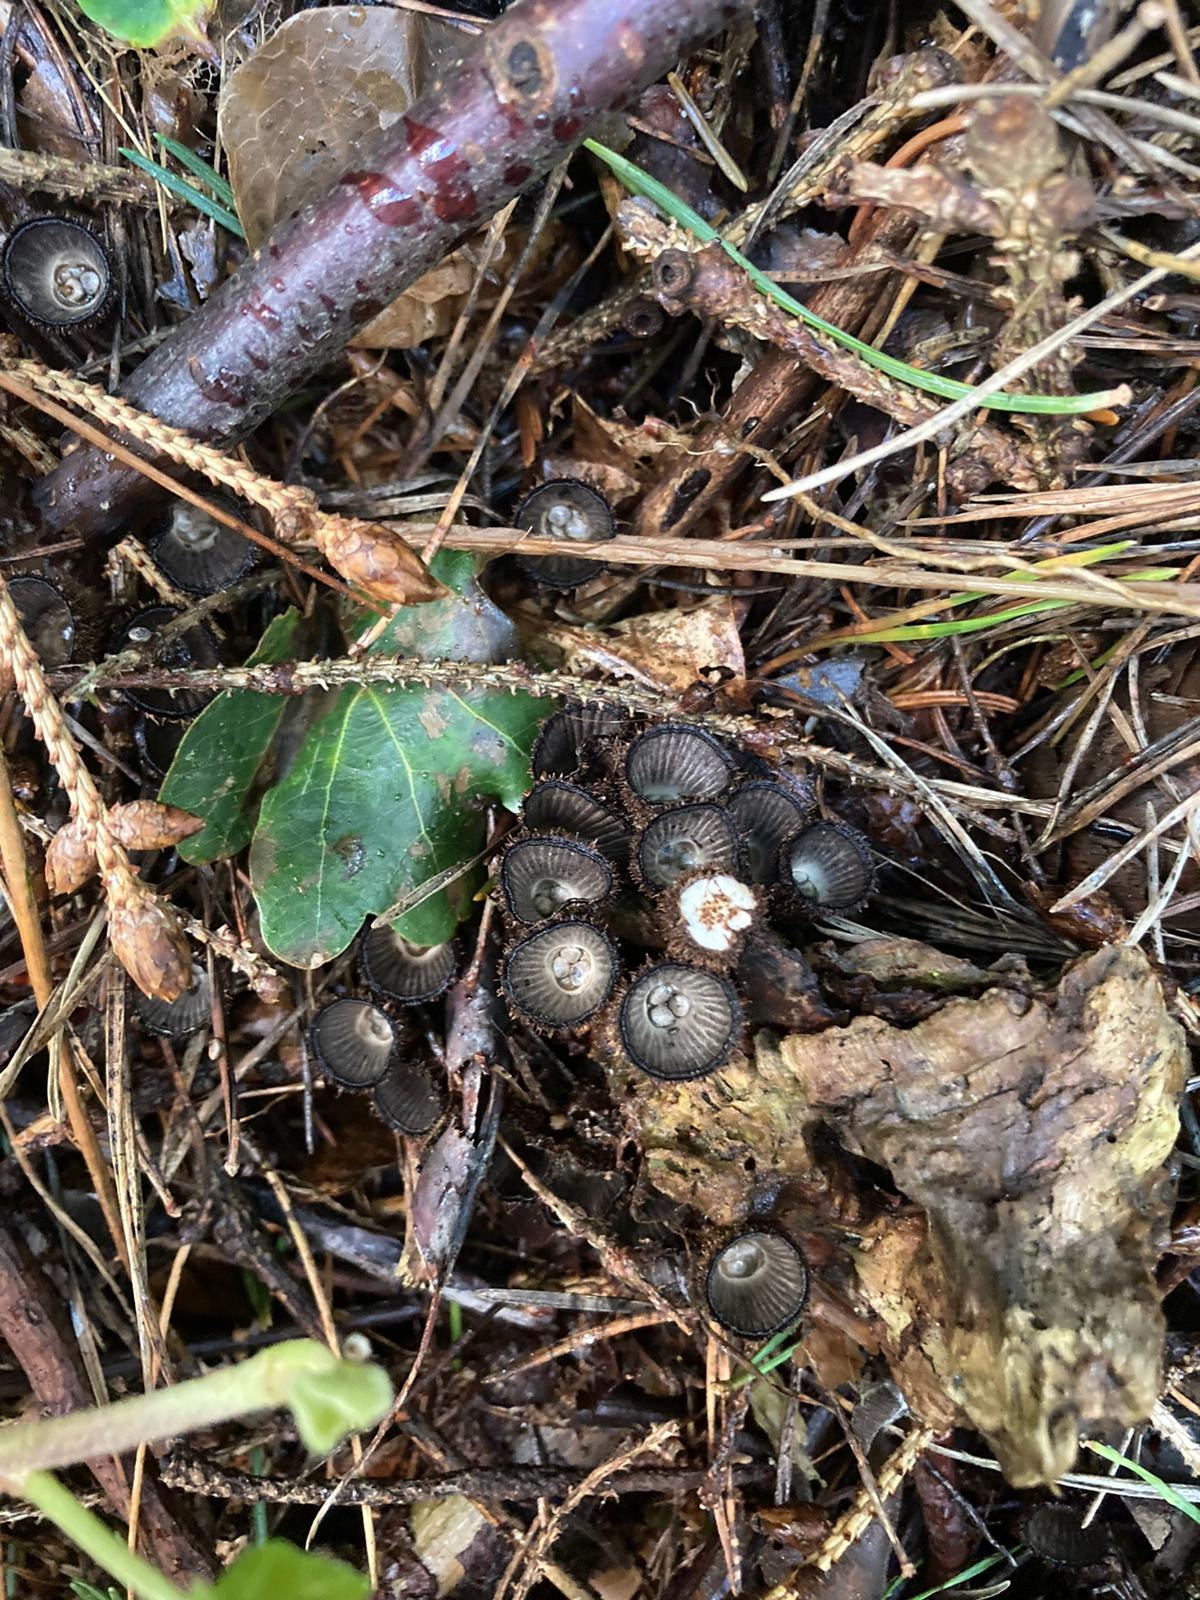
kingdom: Fungi
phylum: Basidiomycota
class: Agaricomycetes
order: Agaricales
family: Agaricaceae
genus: Cyathus
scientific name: Cyathus striatus
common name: stribet redesvamp
